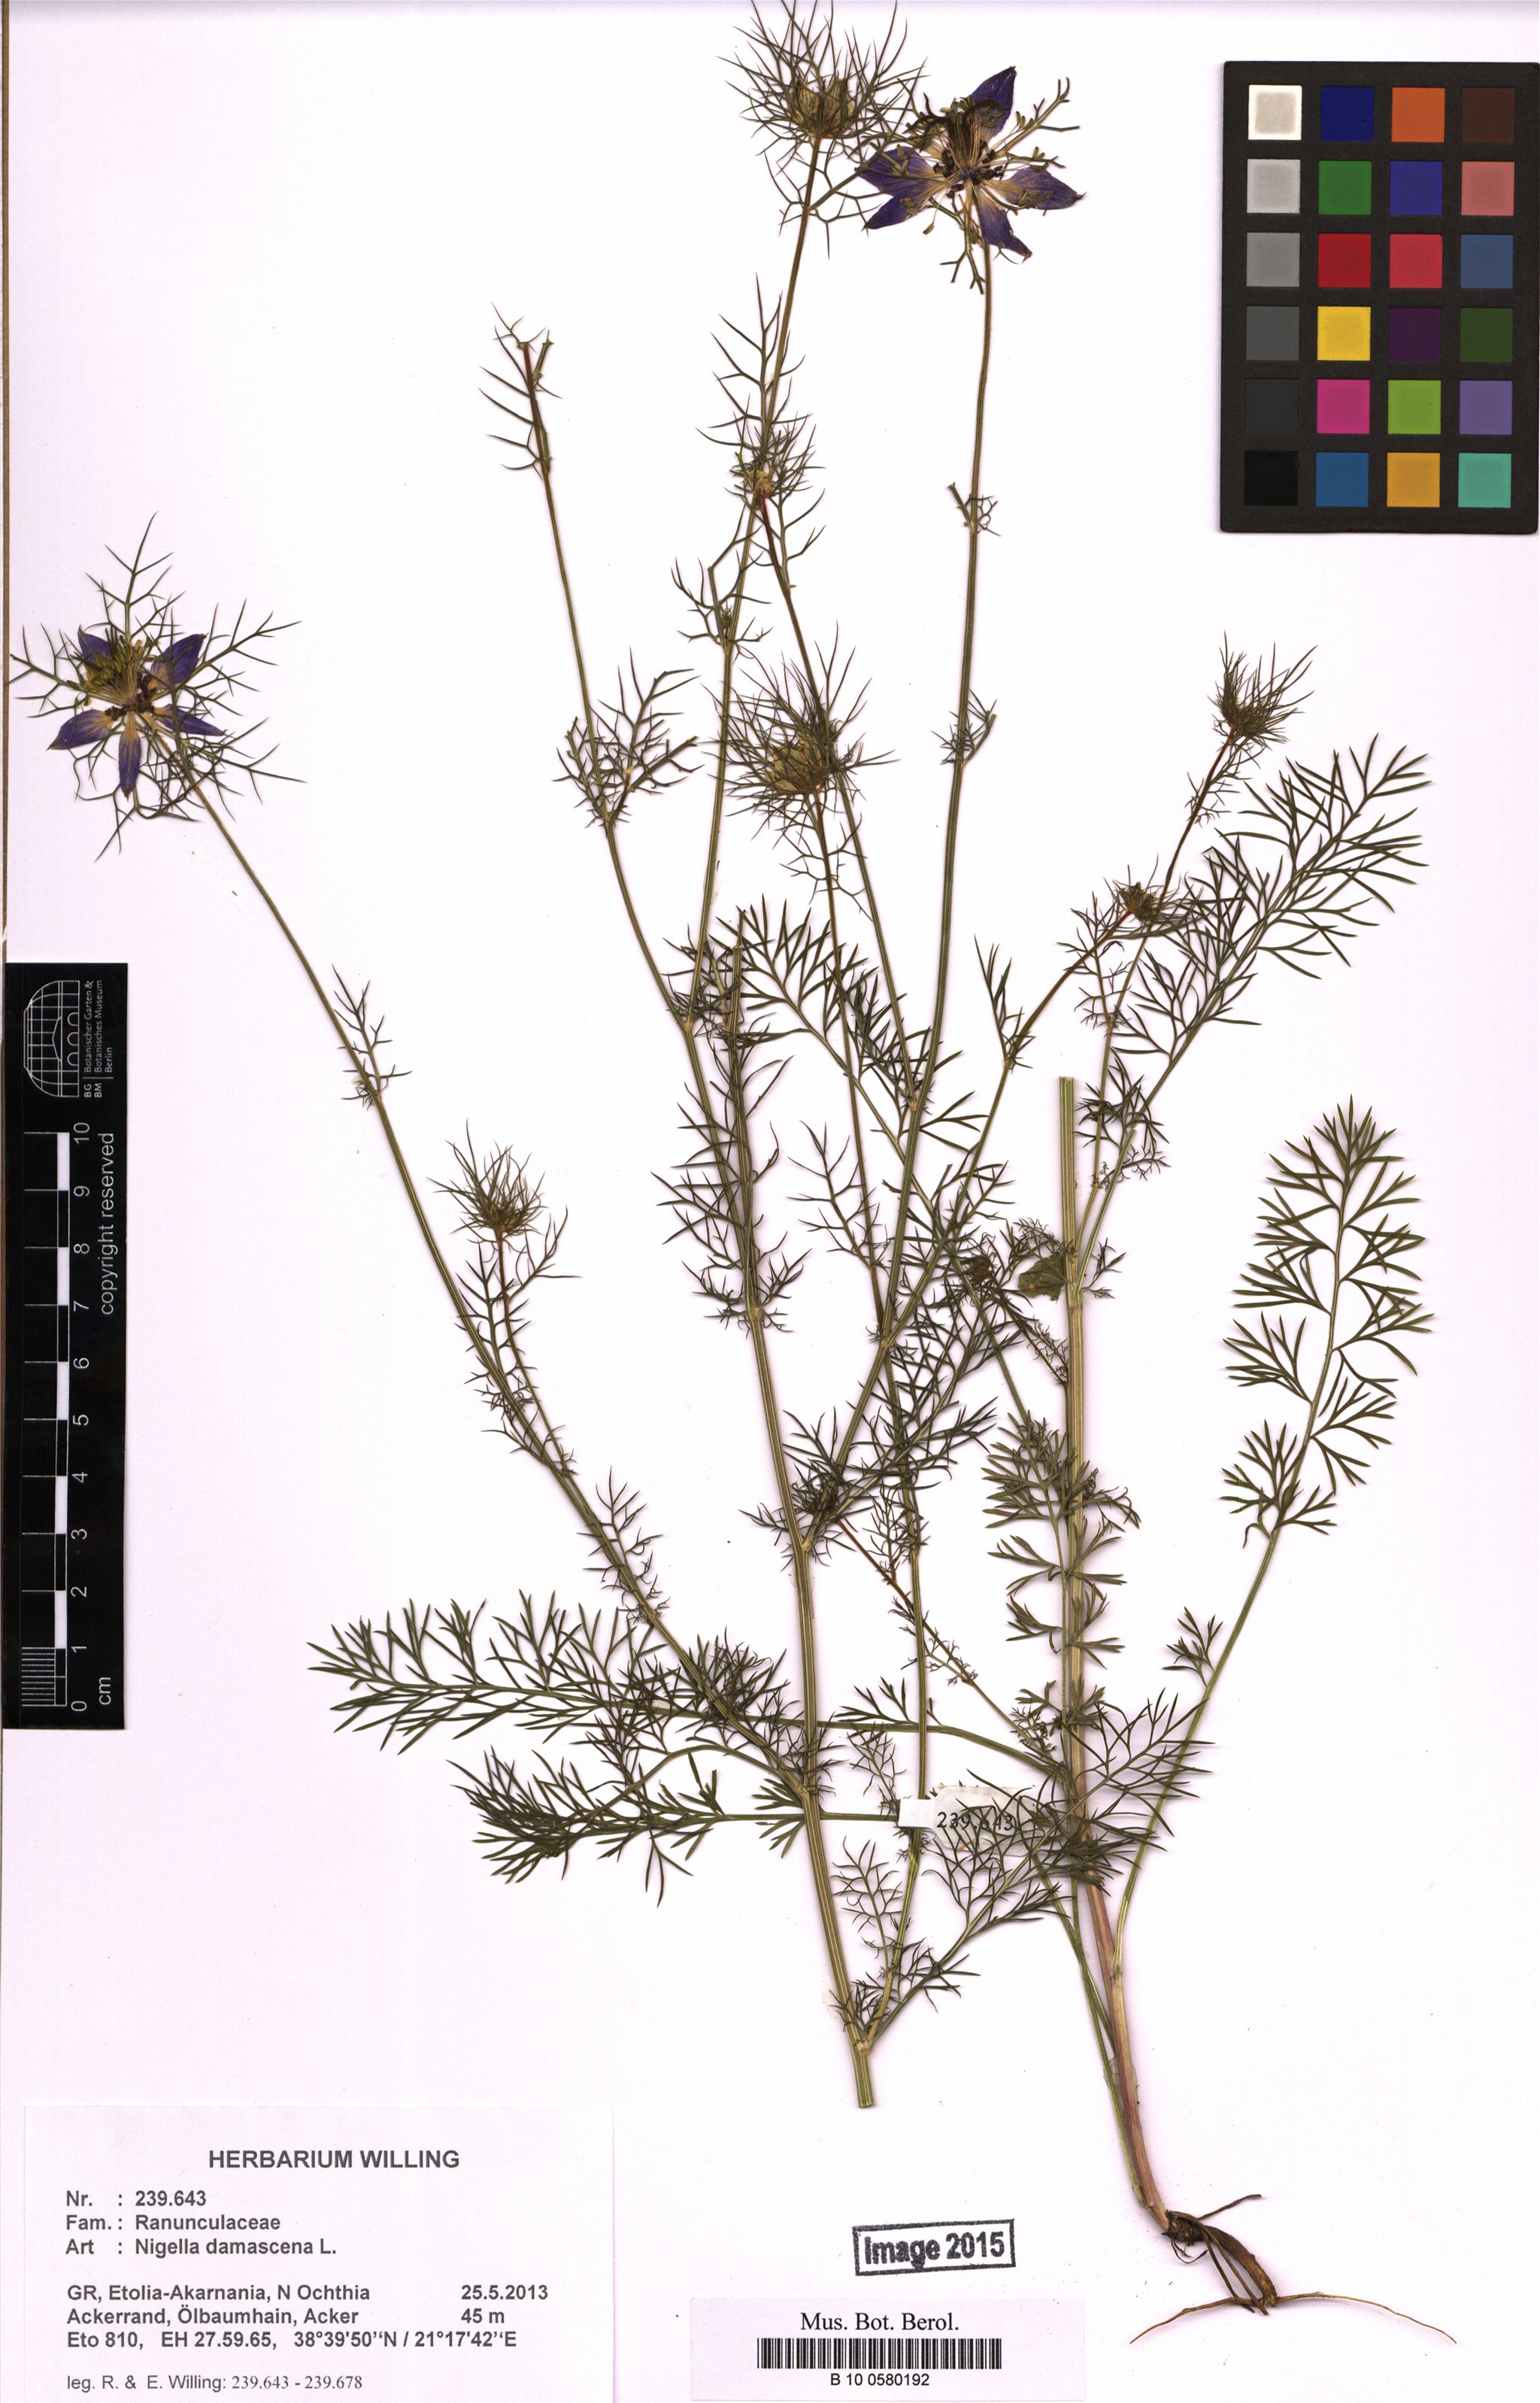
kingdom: Plantae
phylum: Tracheophyta
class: Magnoliopsida
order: Ranunculales
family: Ranunculaceae
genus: Nigella
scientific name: Nigella damascena
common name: Love-in-a-mist
